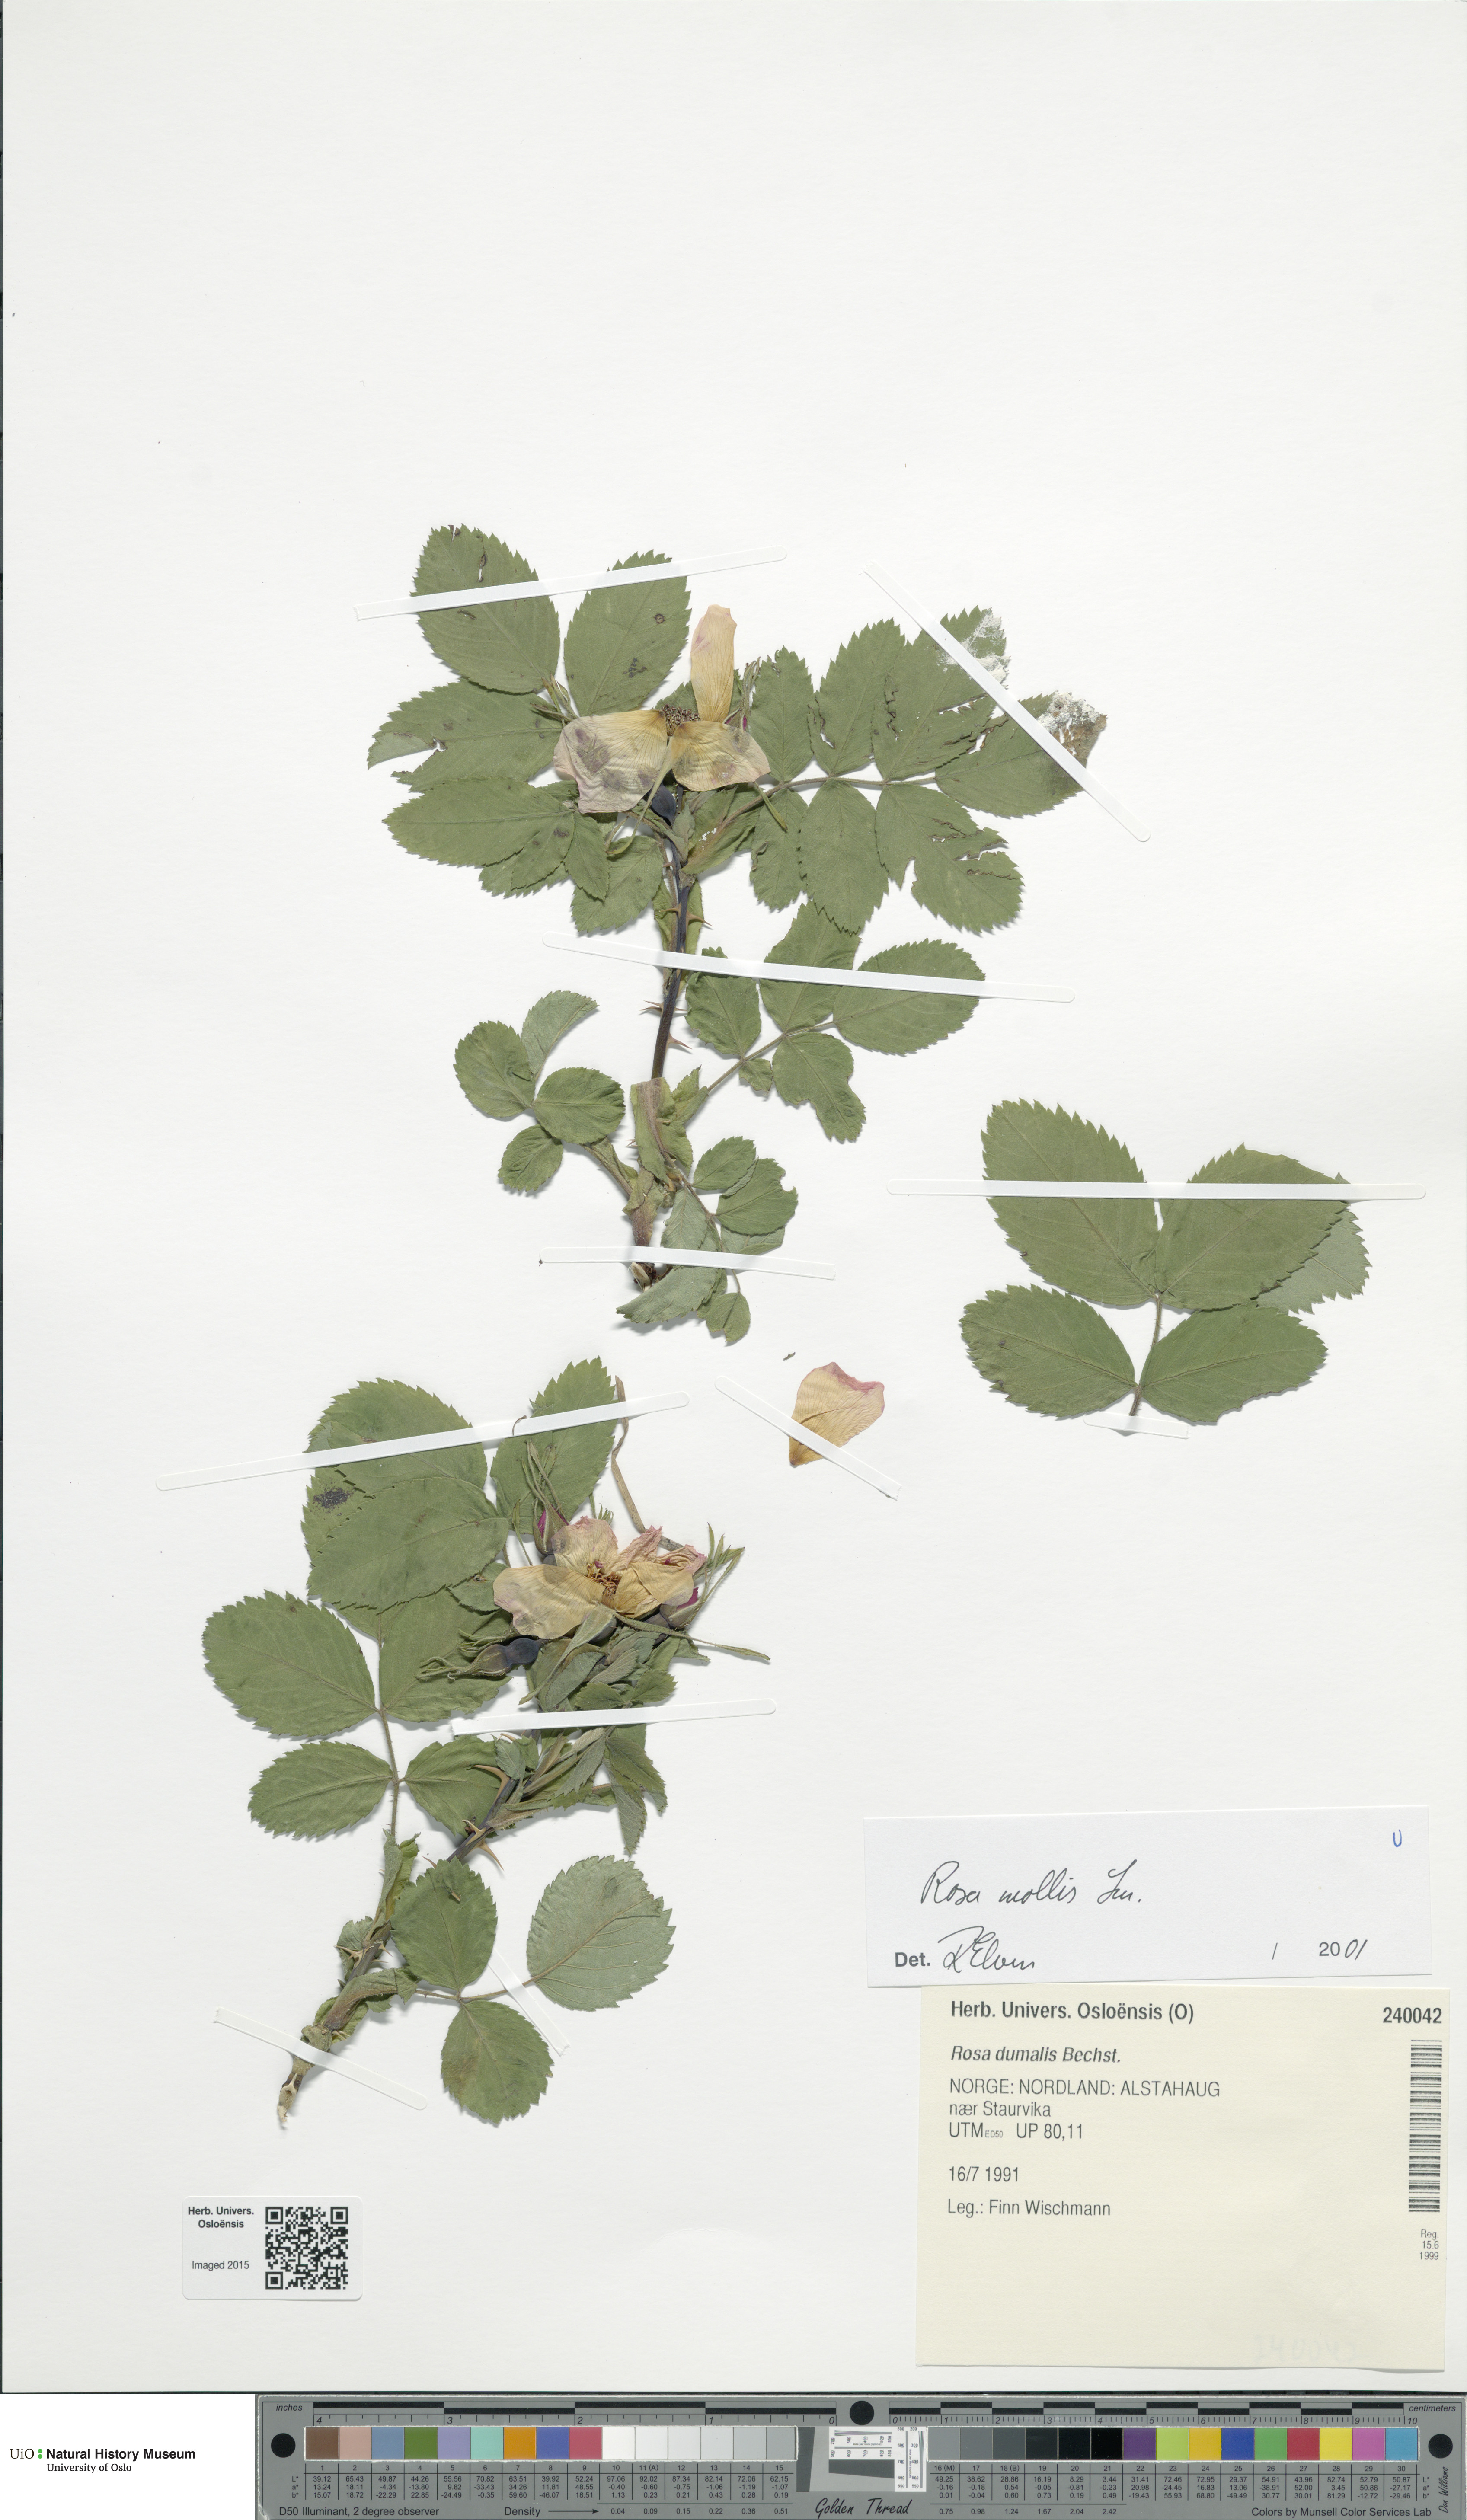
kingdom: Plantae
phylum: Tracheophyta
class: Magnoliopsida
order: Rosales
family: Rosaceae
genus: Rosa
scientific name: Rosa mollis
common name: Rose
